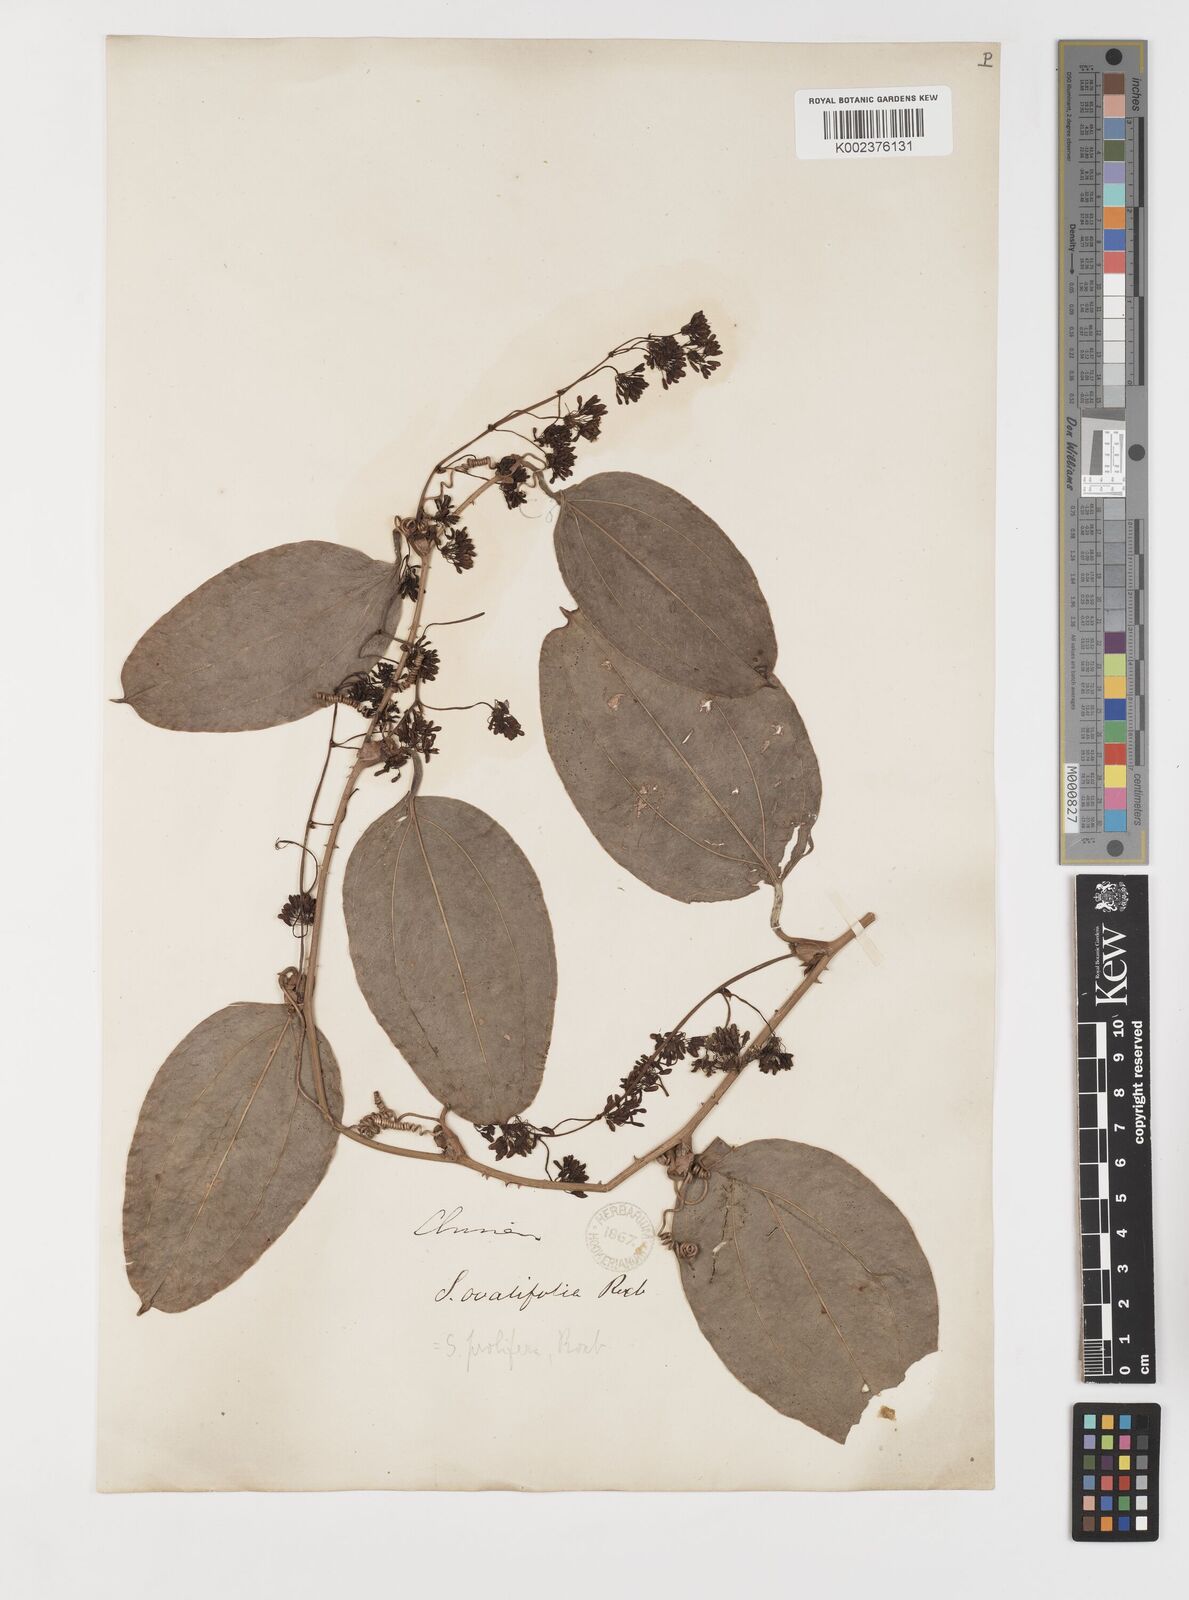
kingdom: Plantae
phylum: Tracheophyta
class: Liliopsida
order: Liliales
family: Smilacaceae
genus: Smilax
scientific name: Smilax prolifera
